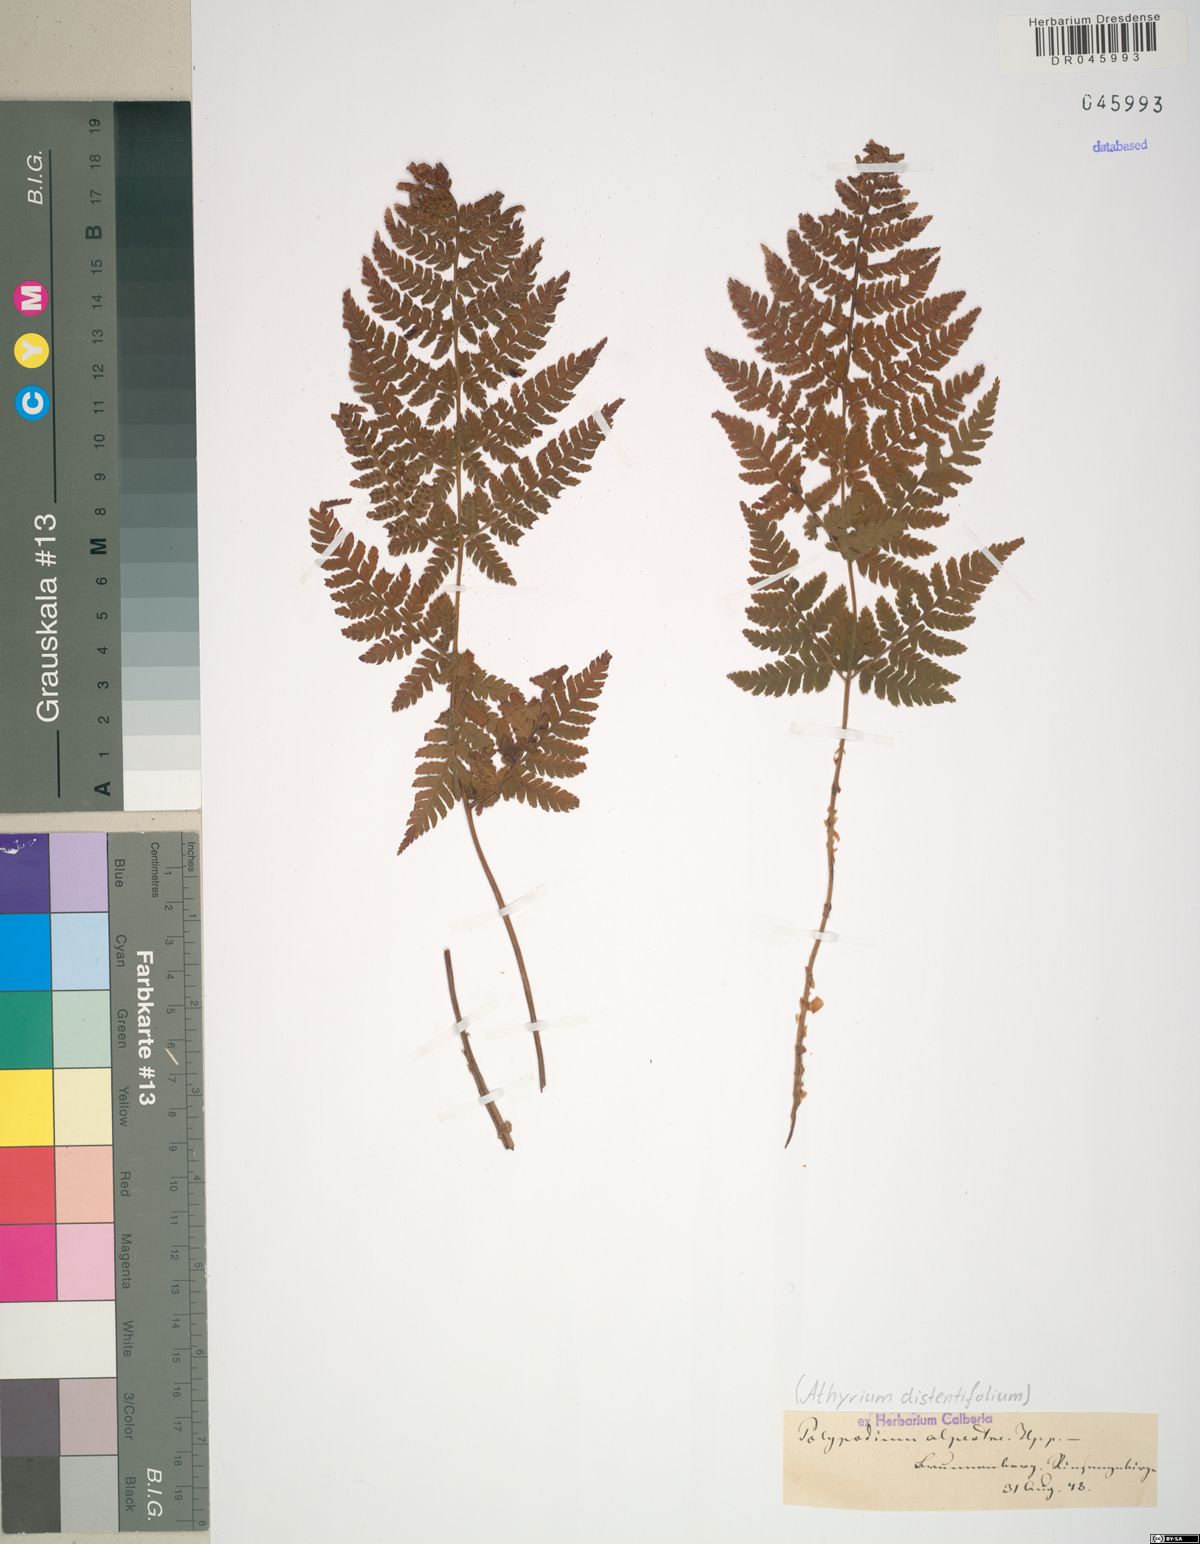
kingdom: Plantae
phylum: Tracheophyta
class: Polypodiopsida
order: Polypodiales
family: Athyriaceae
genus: Pseudathyrium
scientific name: Pseudathyrium alpestre
